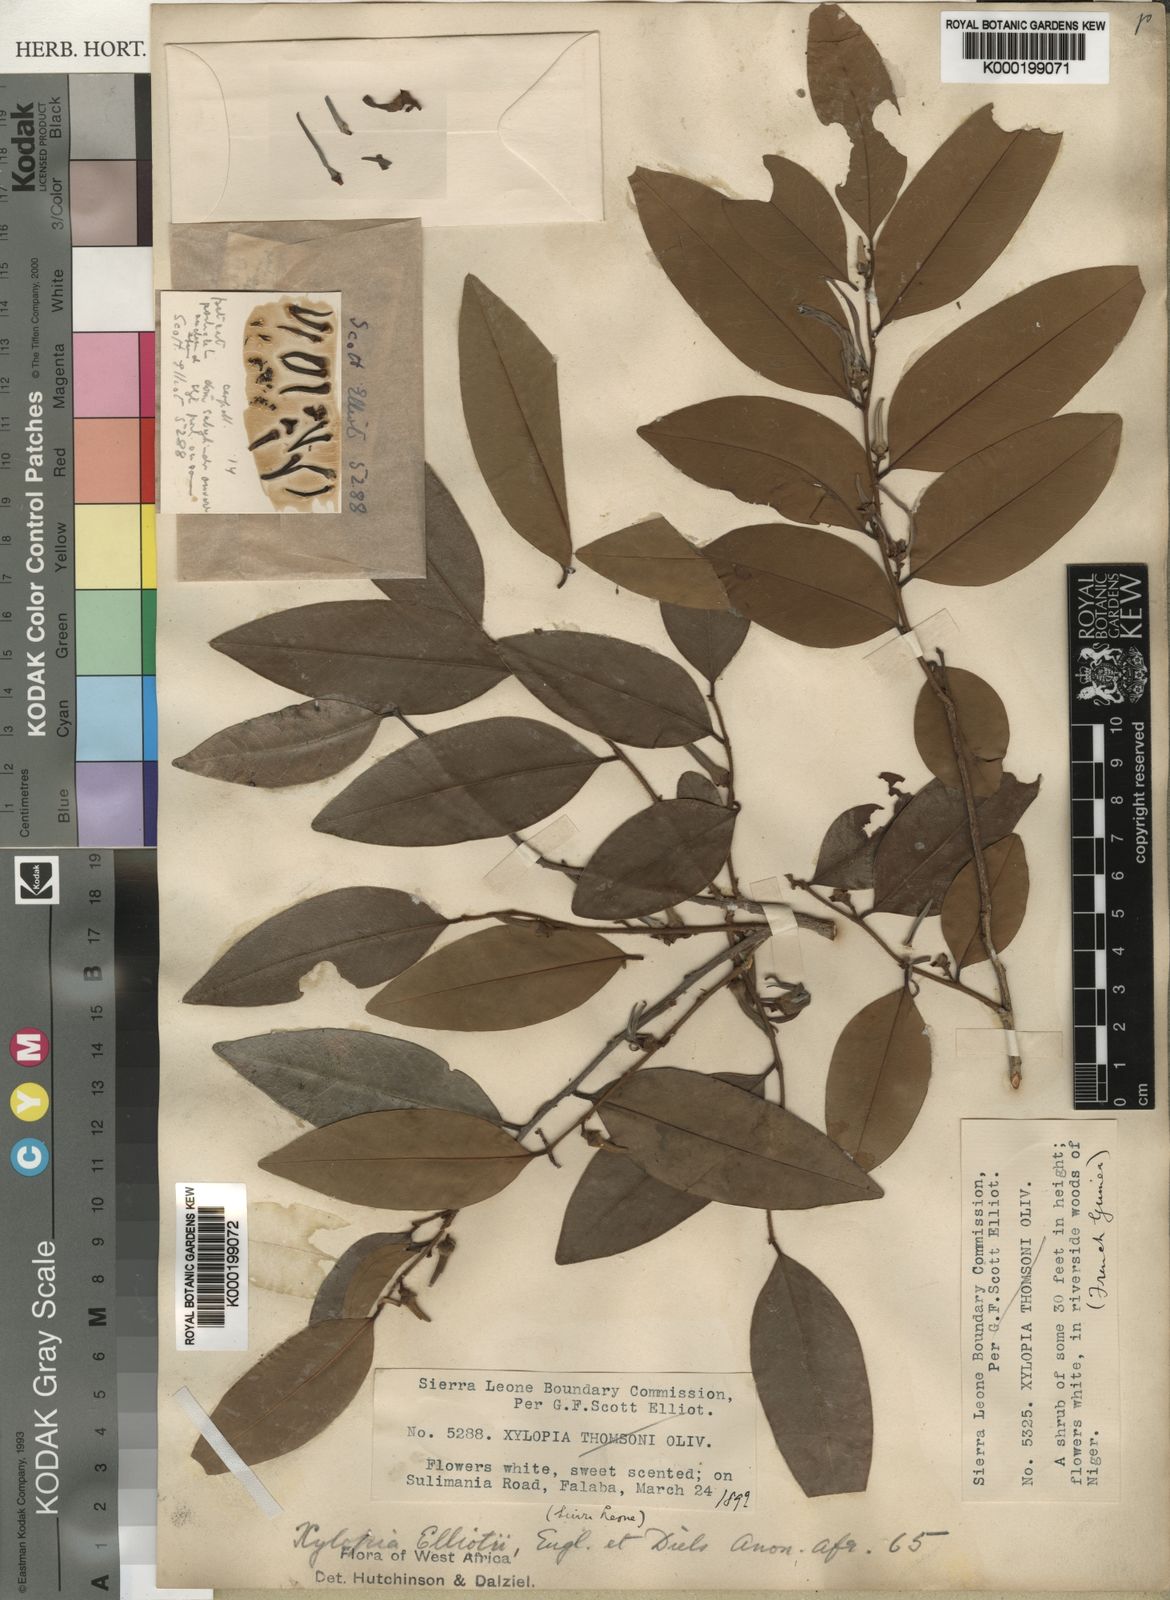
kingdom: Plantae
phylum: Tracheophyta
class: Magnoliopsida
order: Magnoliales
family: Annonaceae
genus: Xylopia
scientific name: Xylopia elliotii
